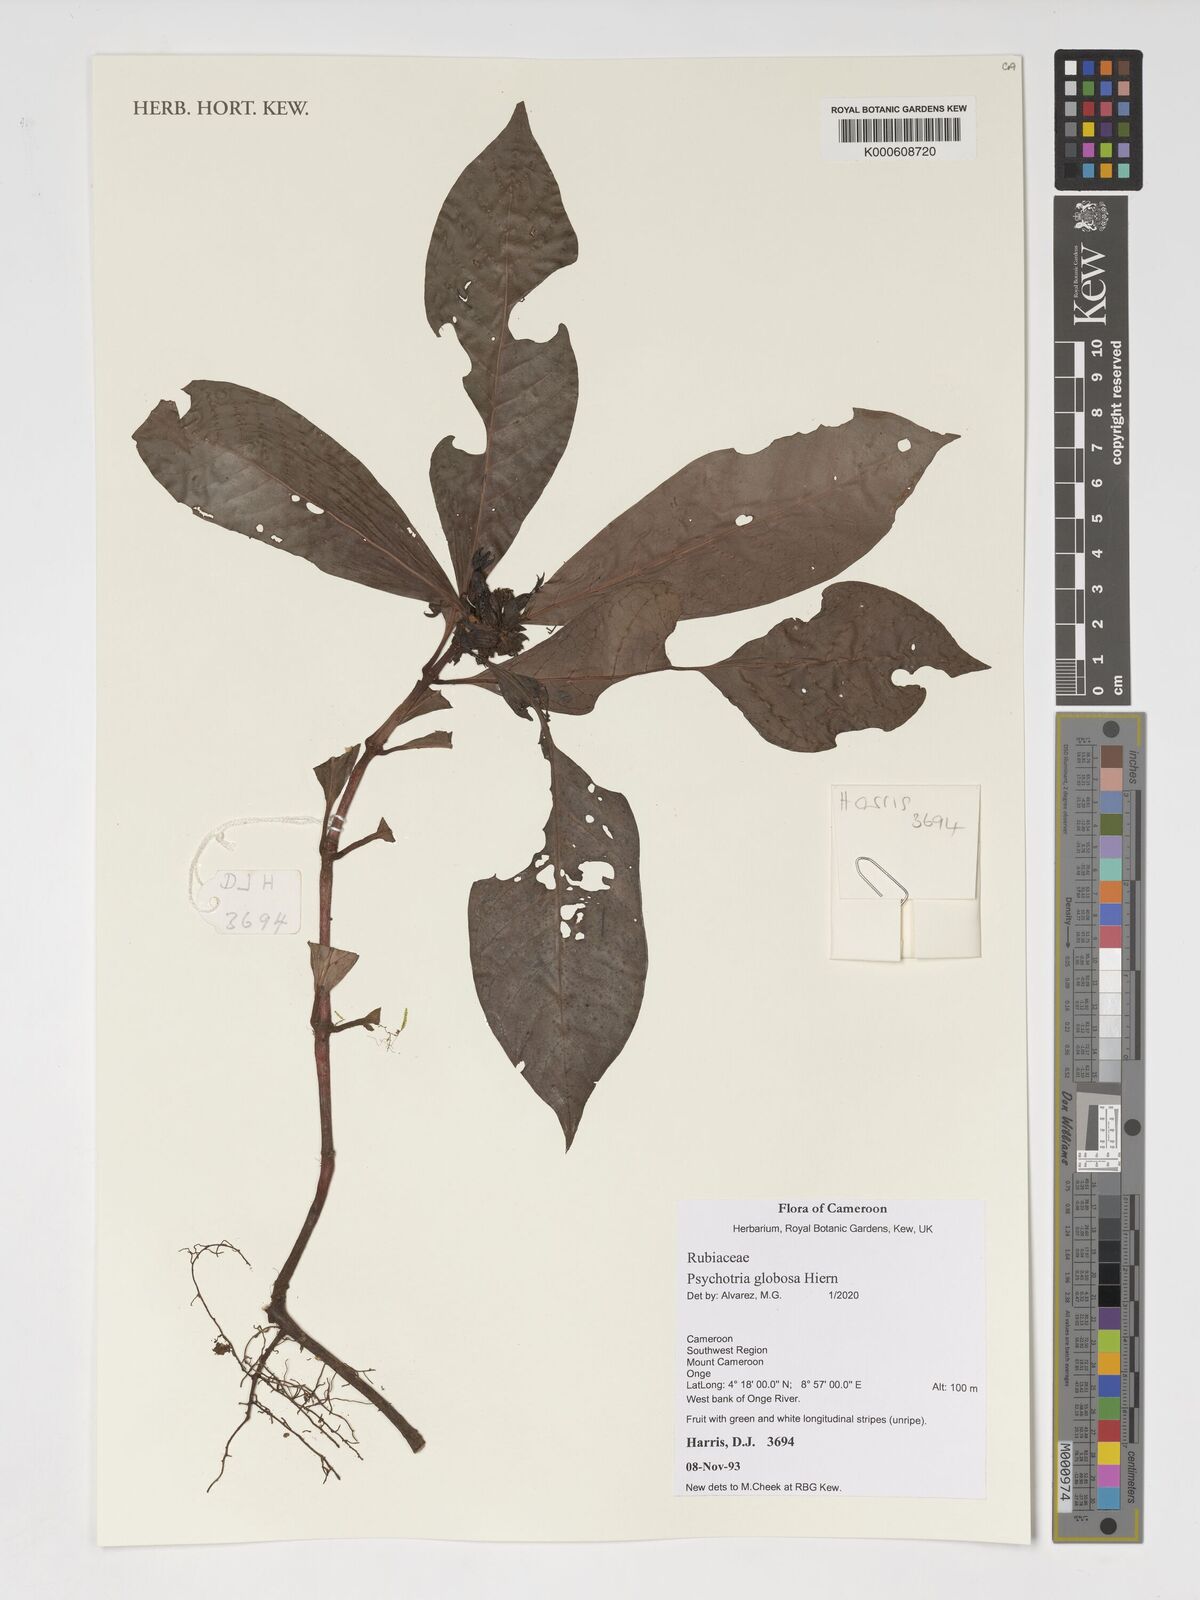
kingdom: Plantae
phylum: Tracheophyta
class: Magnoliopsida
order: Gentianales
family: Rubiaceae
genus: Psychotria
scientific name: Psychotria globosa
